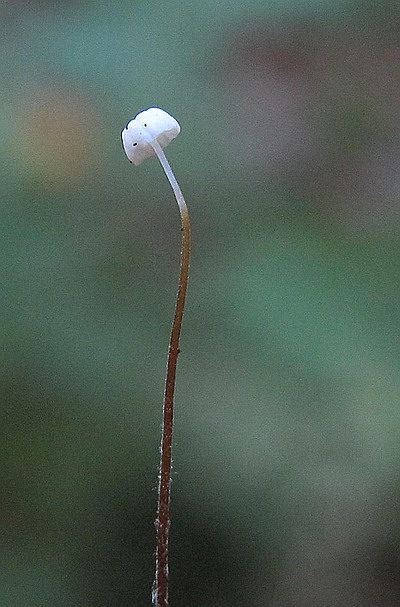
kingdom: Fungi
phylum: Basidiomycota
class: Agaricomycetes
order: Agaricales
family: Physalacriaceae
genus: Rhizomarasmius
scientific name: Rhizomarasmius setosus
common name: bøgeblads-bruskhat
